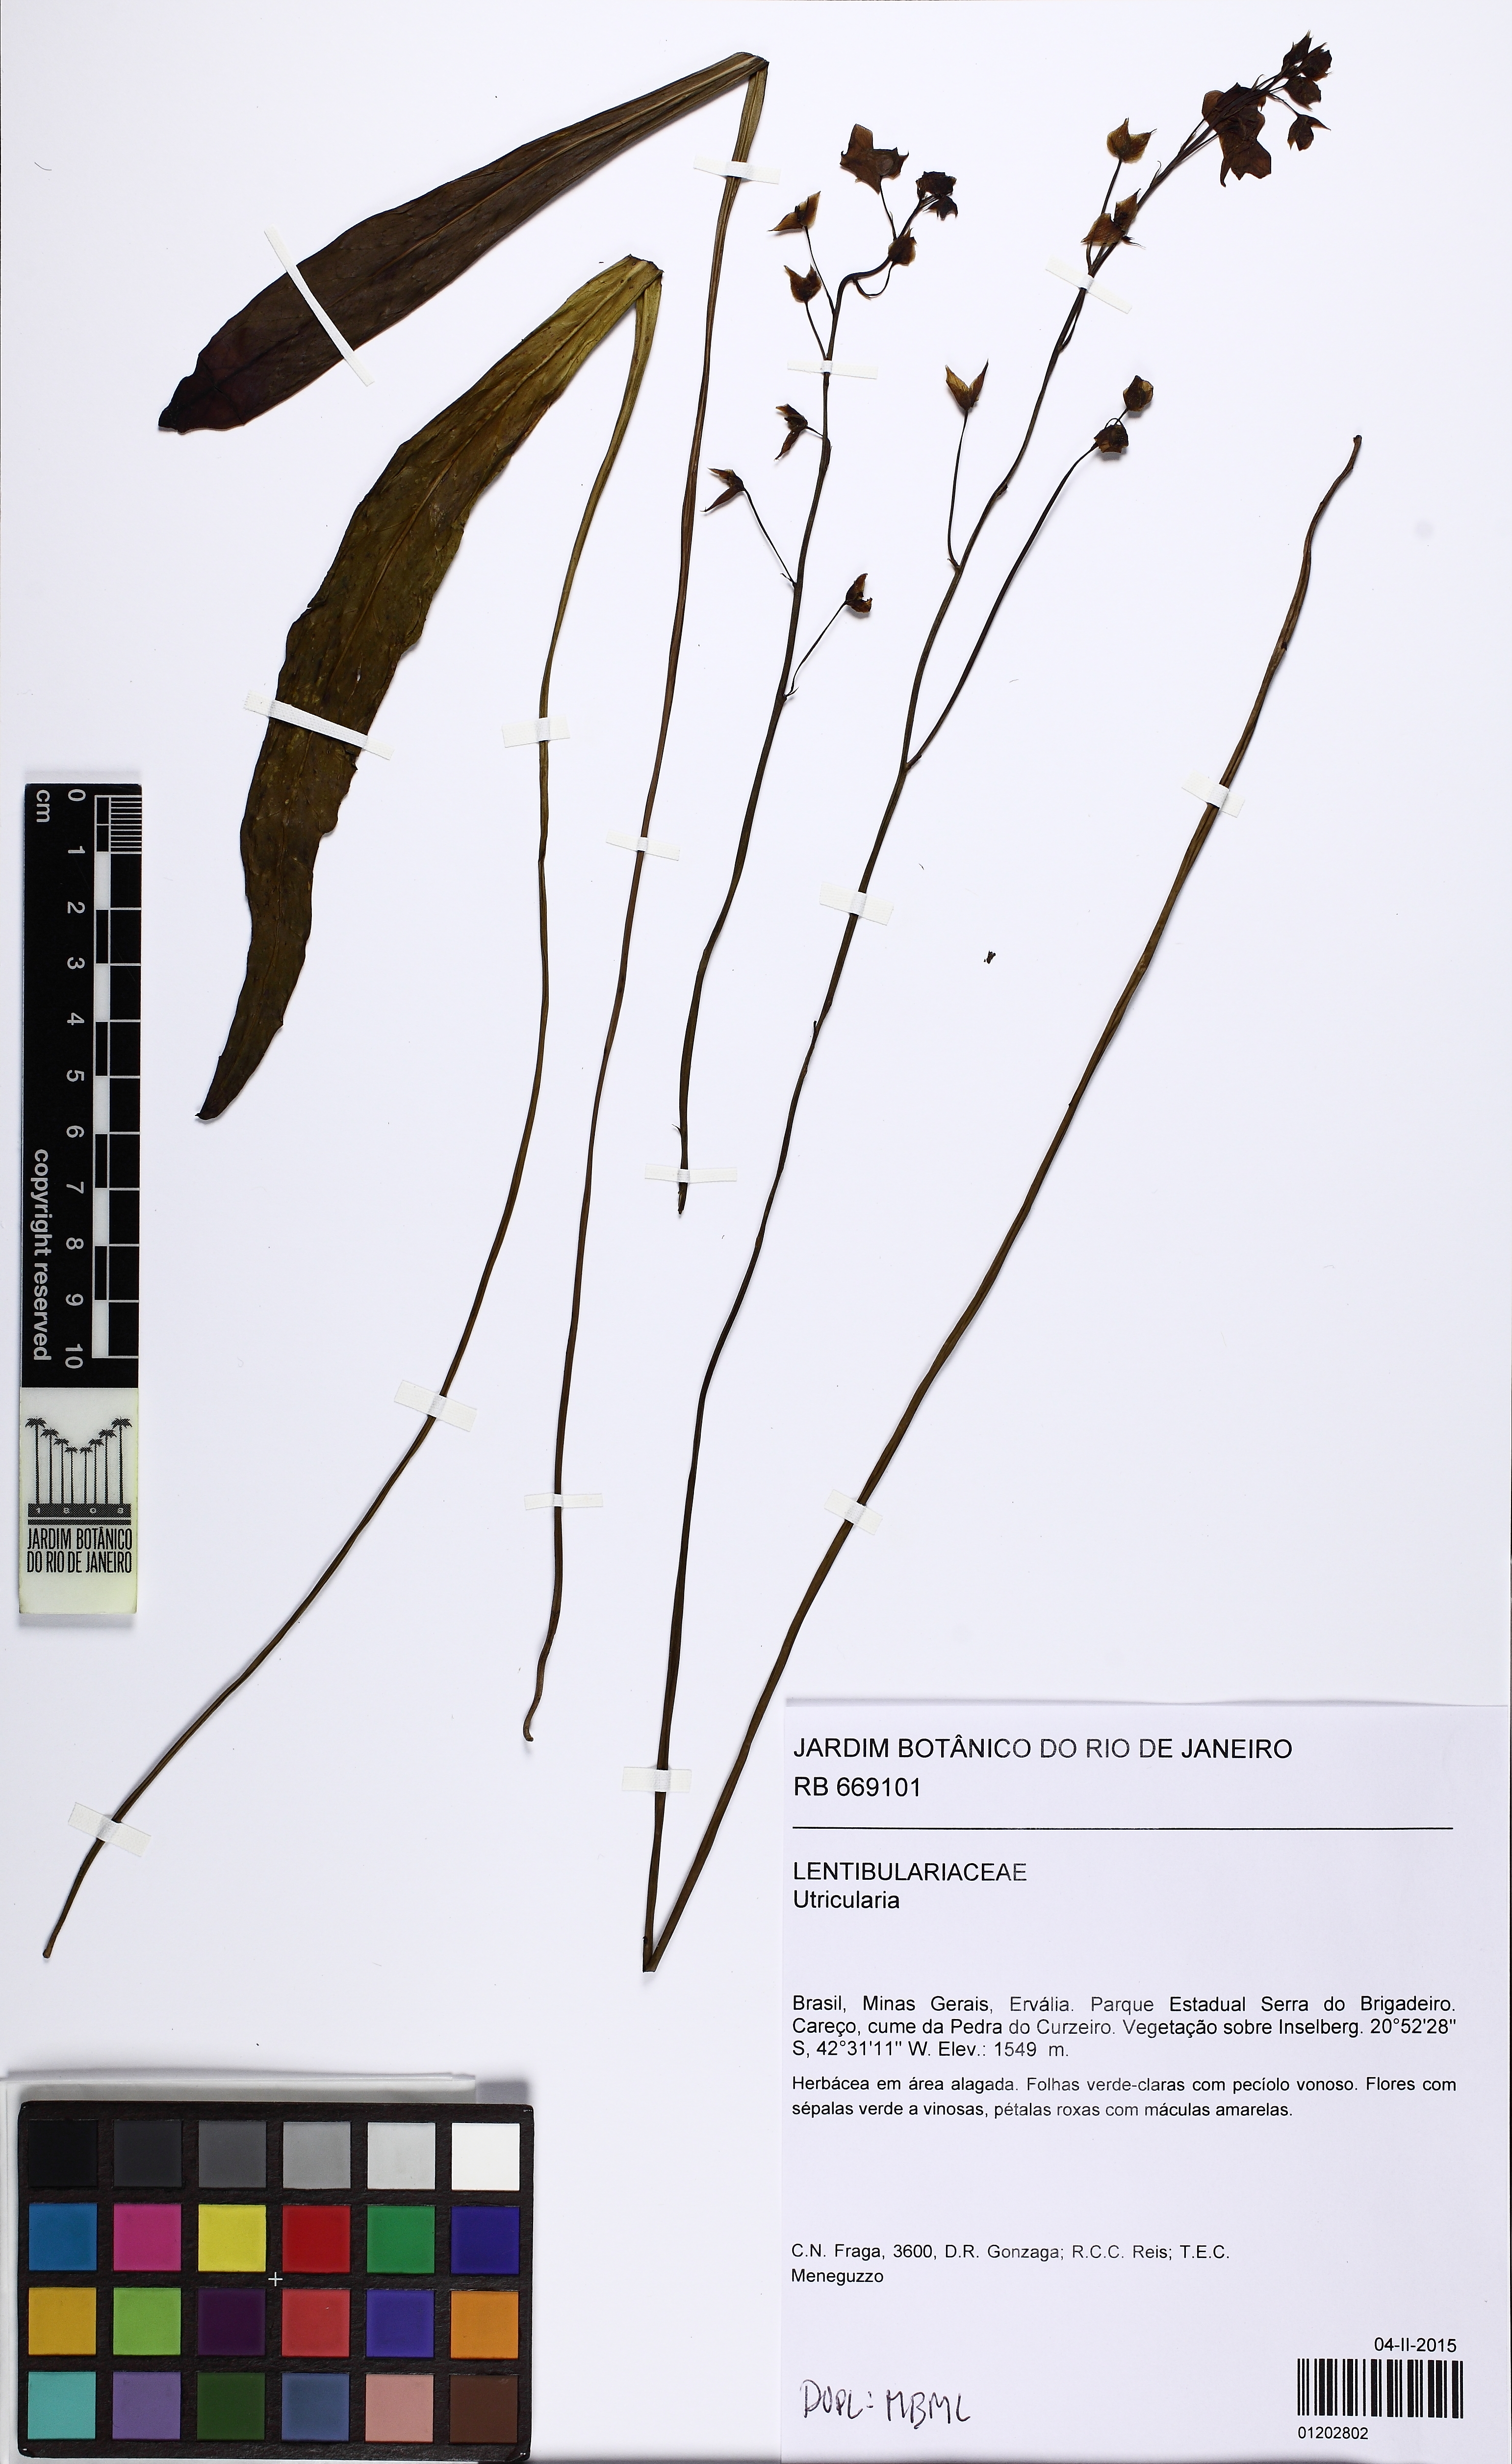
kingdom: Plantae
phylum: Tracheophyta
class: Magnoliopsida
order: Lamiales
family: Lentibulariaceae
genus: Utricularia
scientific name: Utricularia longifolia
